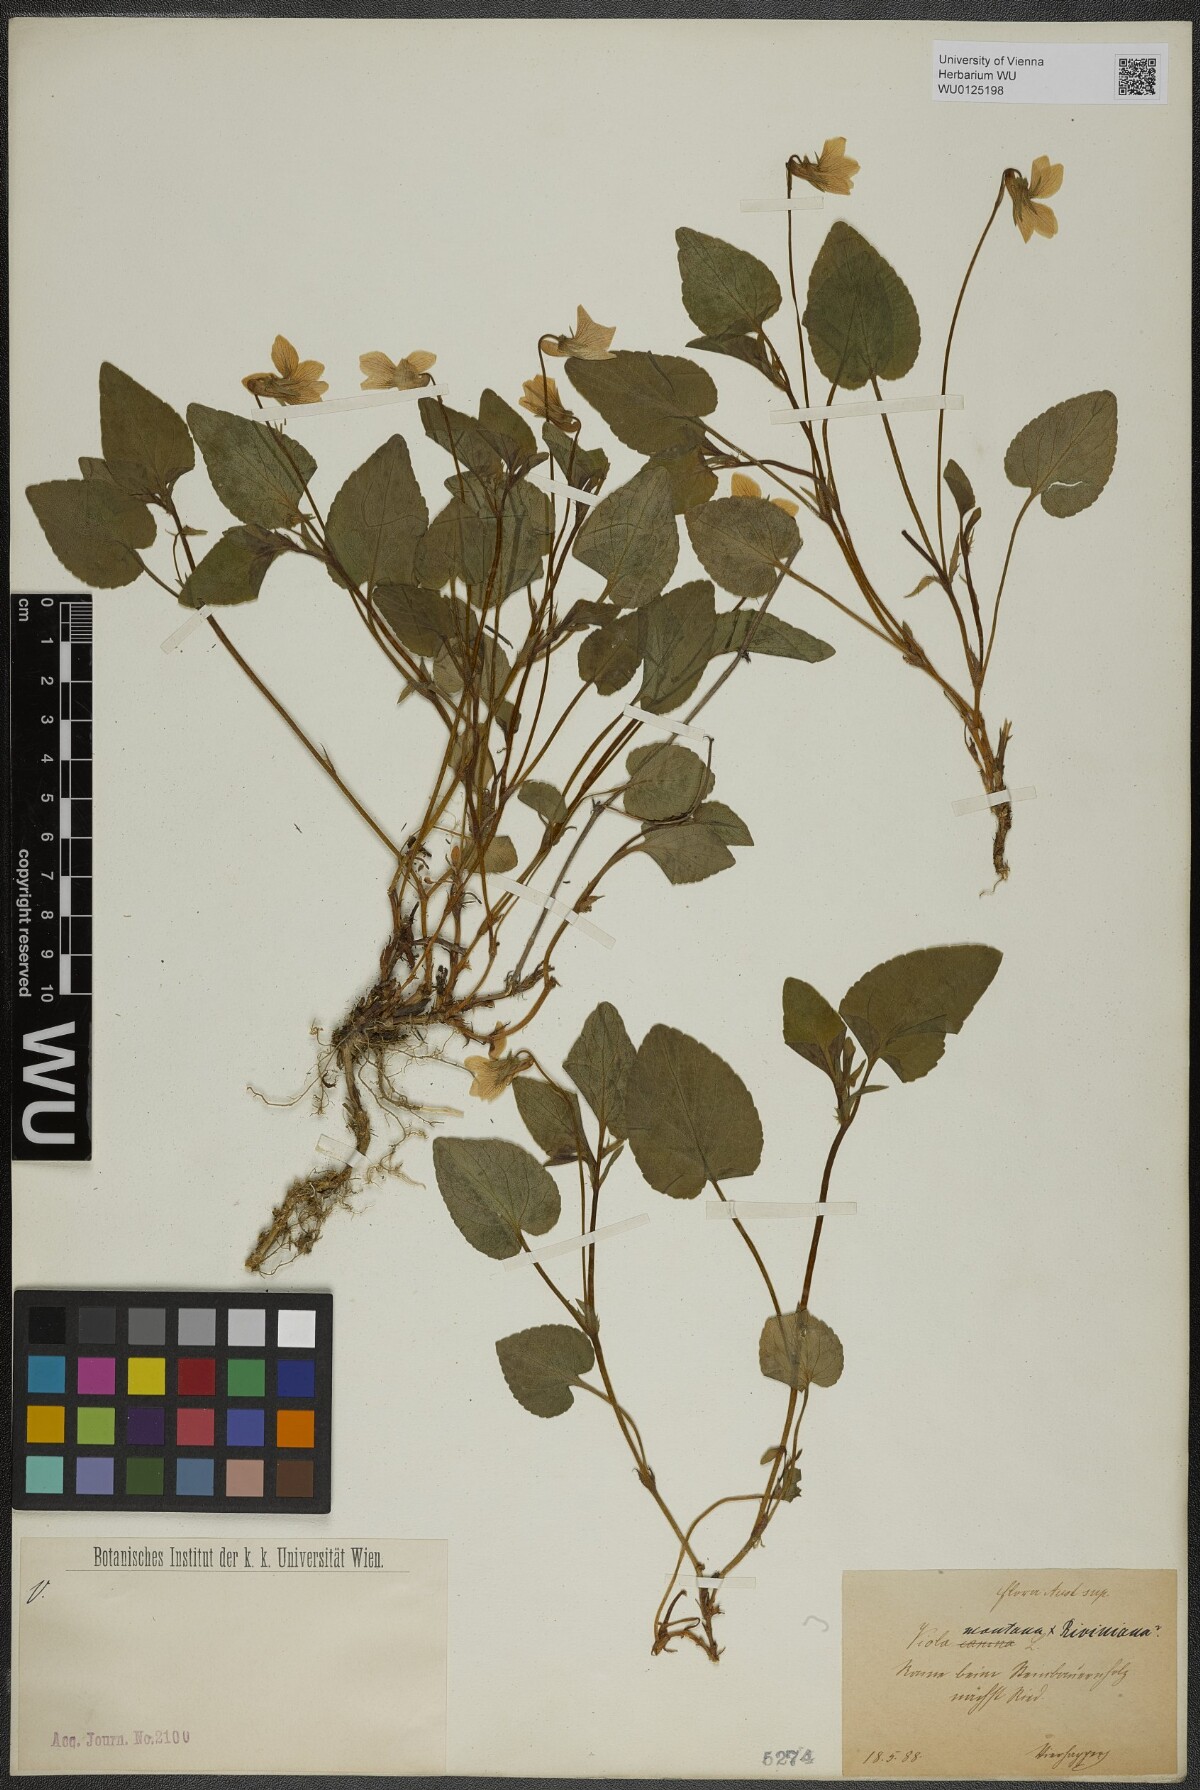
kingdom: Plantae
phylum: Tracheophyta
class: Magnoliopsida
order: Malpighiales
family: Violaceae
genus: Viola
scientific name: Viola
